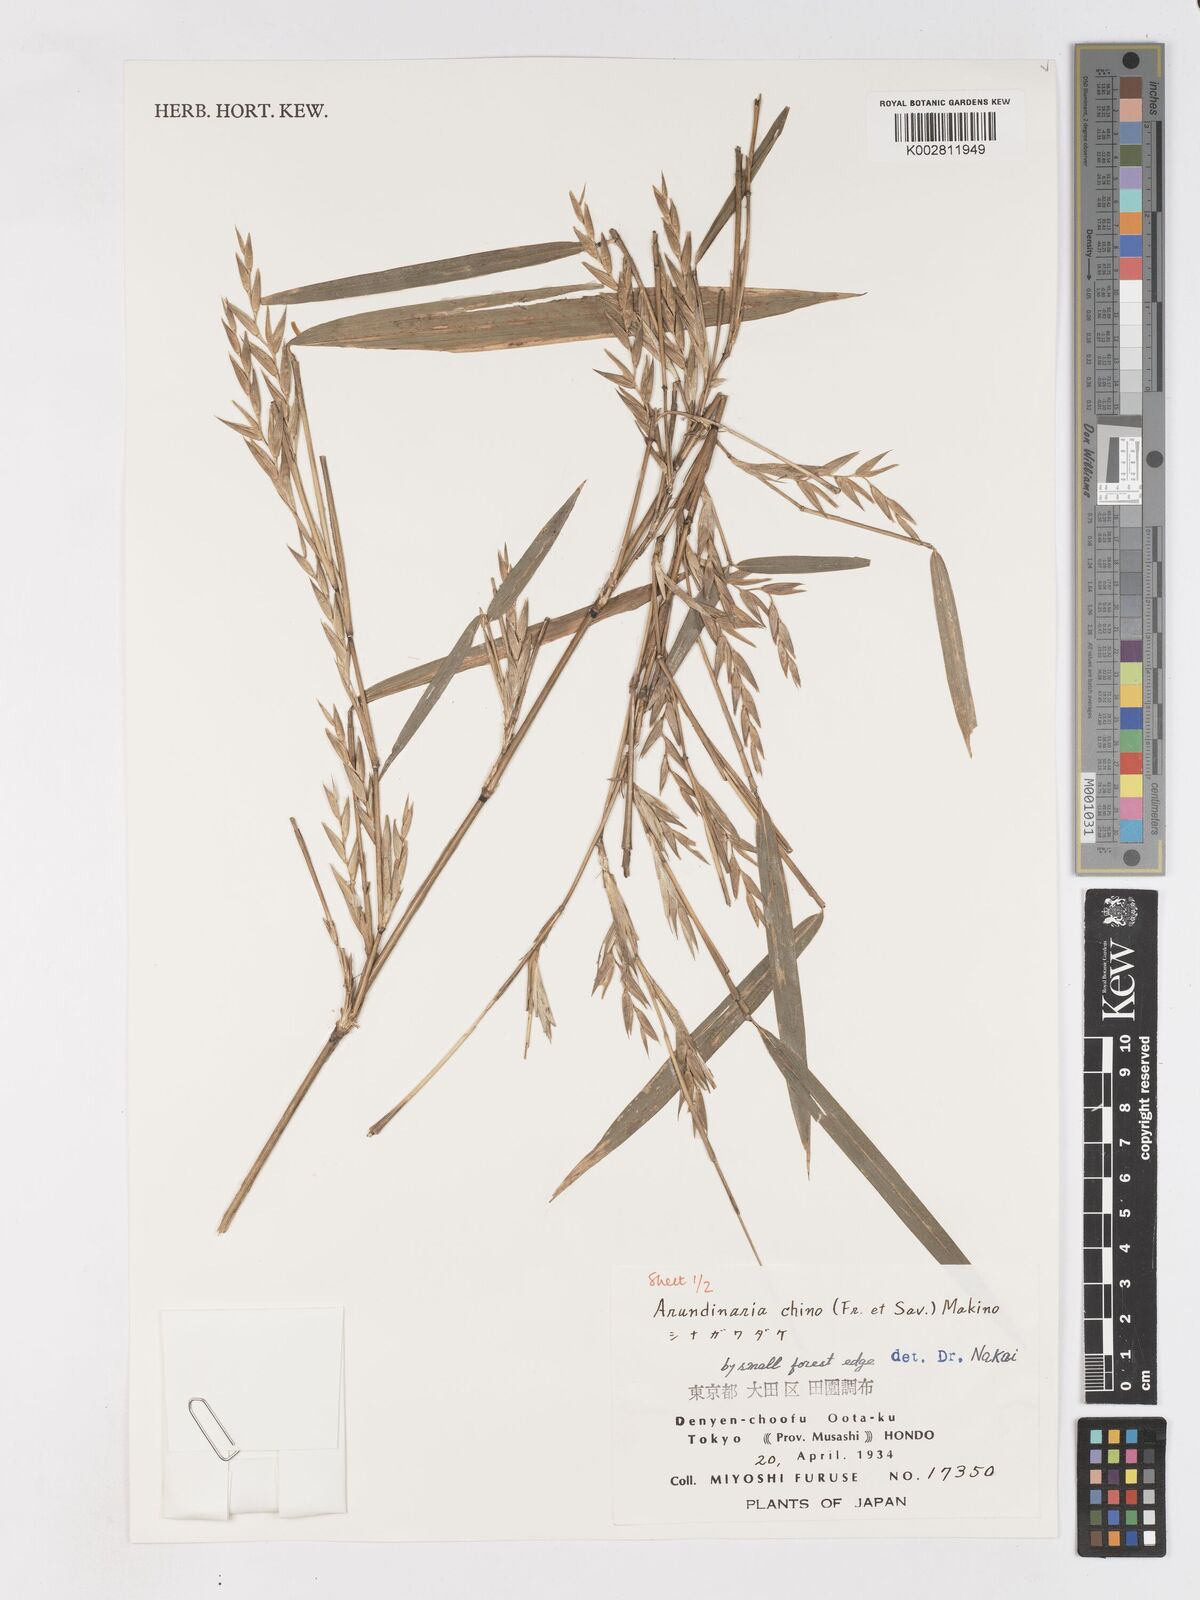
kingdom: Plantae
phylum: Tracheophyta
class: Liliopsida
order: Poales
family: Poaceae
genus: Pleioblastus
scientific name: Pleioblastus argenteostriatus
